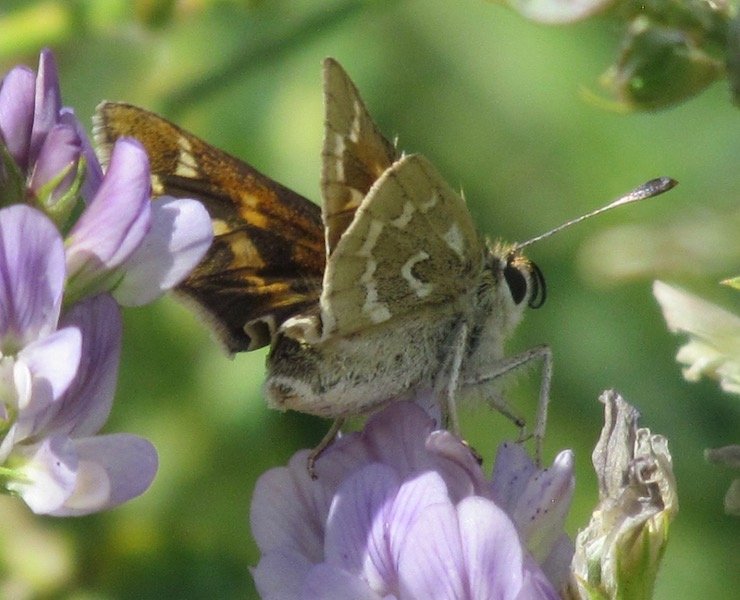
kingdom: Animalia
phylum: Arthropoda
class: Insecta
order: Lepidoptera
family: Hesperiidae
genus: Hesperia
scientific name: Hesperia comma
